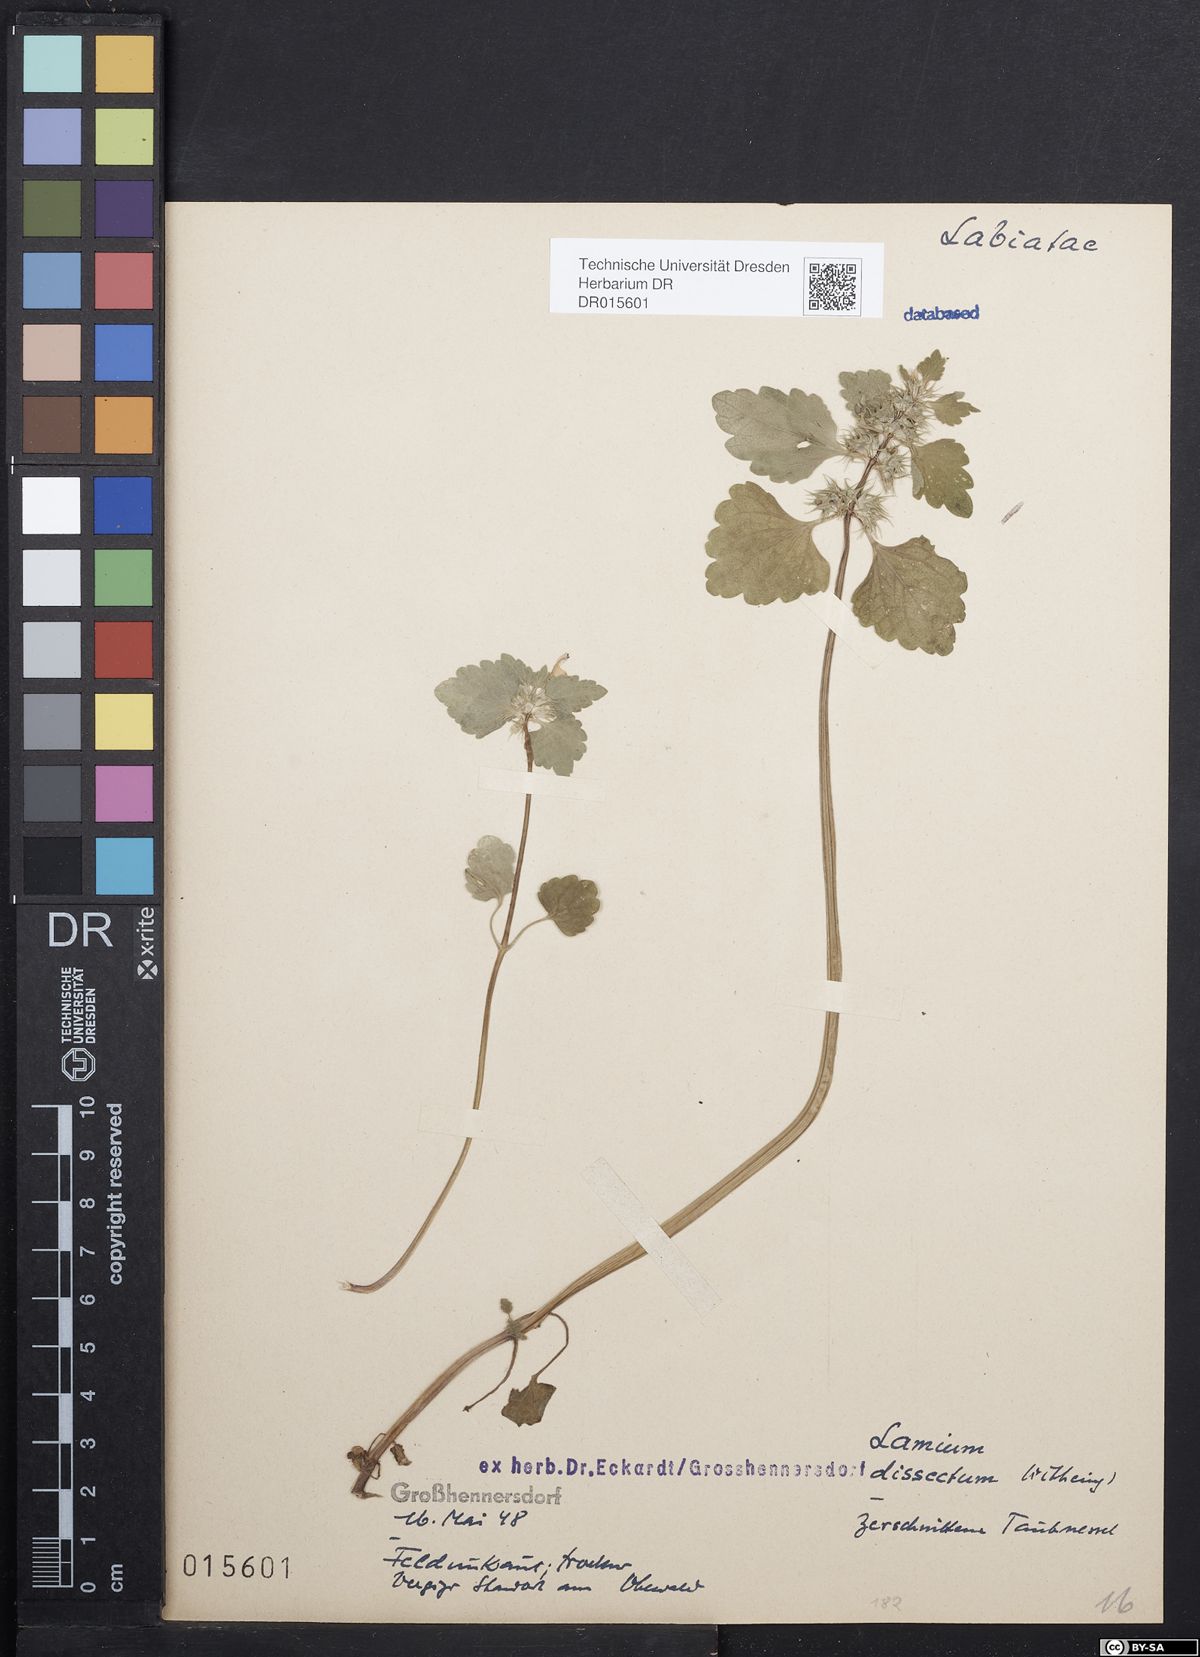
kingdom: Plantae
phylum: Tracheophyta
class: Magnoliopsida
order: Lamiales
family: Lamiaceae
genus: Lamium
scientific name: Lamium purpureum
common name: Red dead-nettle
